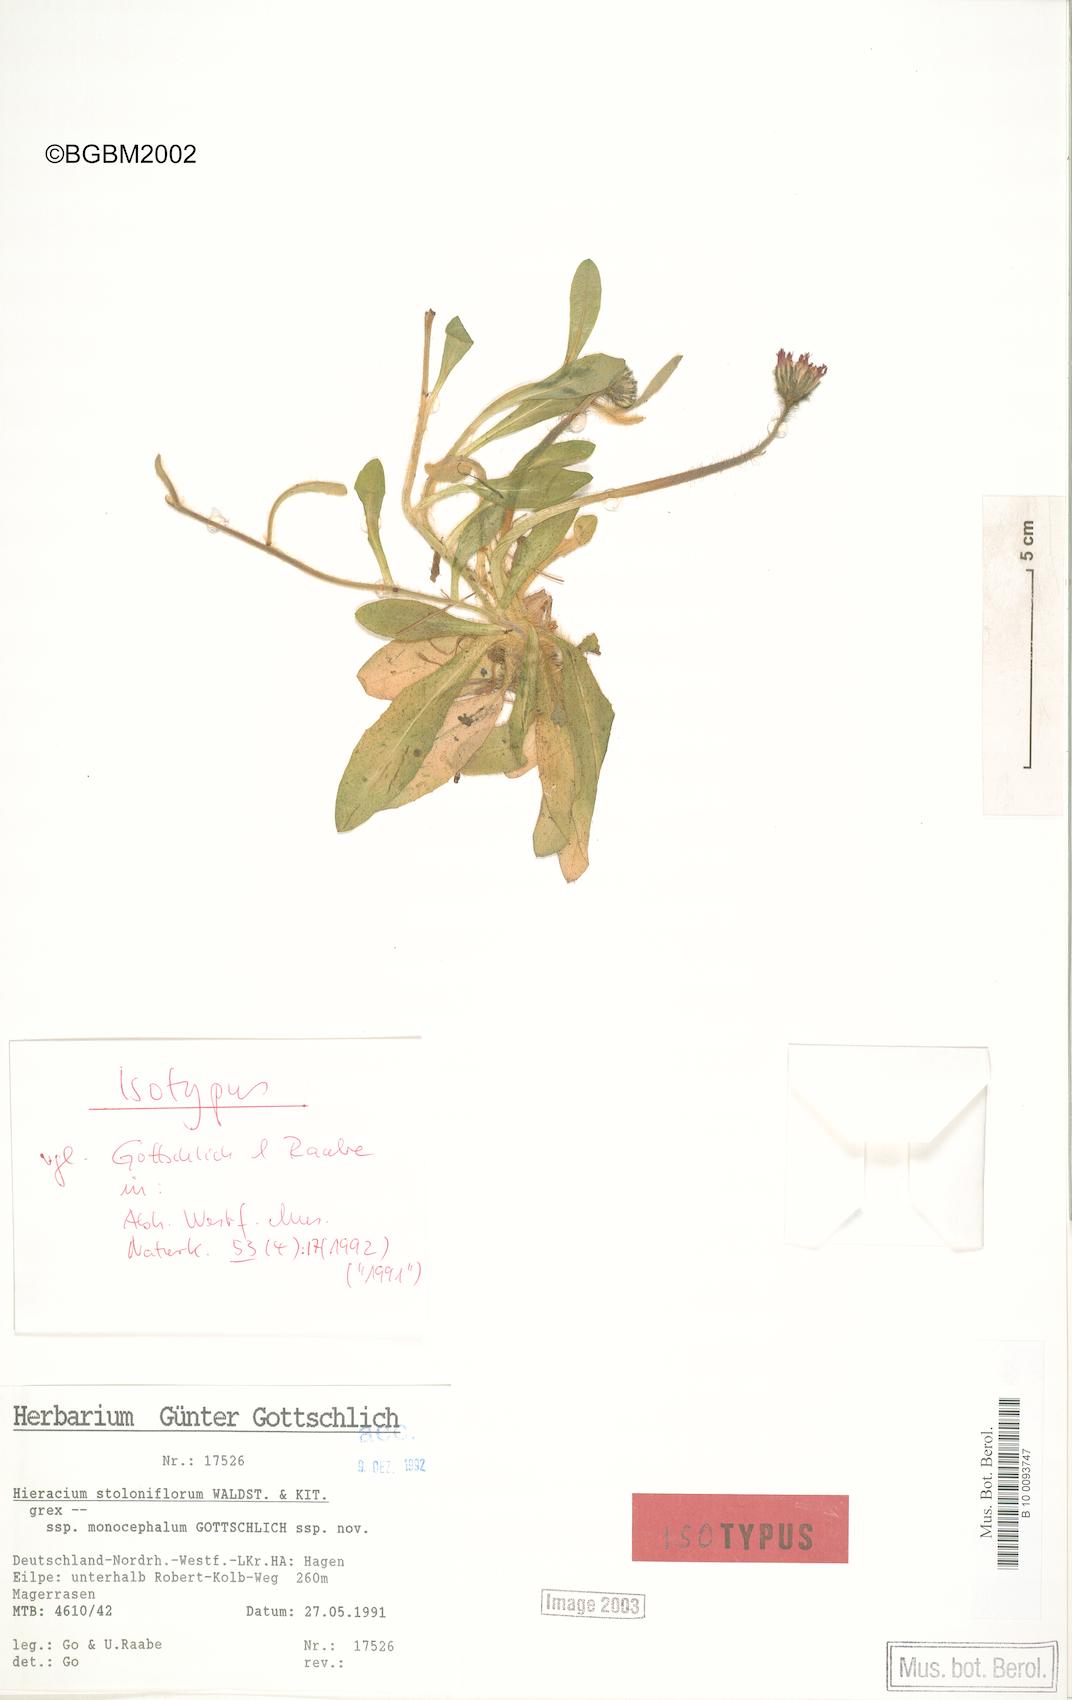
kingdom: Plantae
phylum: Tracheophyta
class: Magnoliopsida
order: Asterales
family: Asteraceae
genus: Pilosella
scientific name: Pilosella stoloniflora
